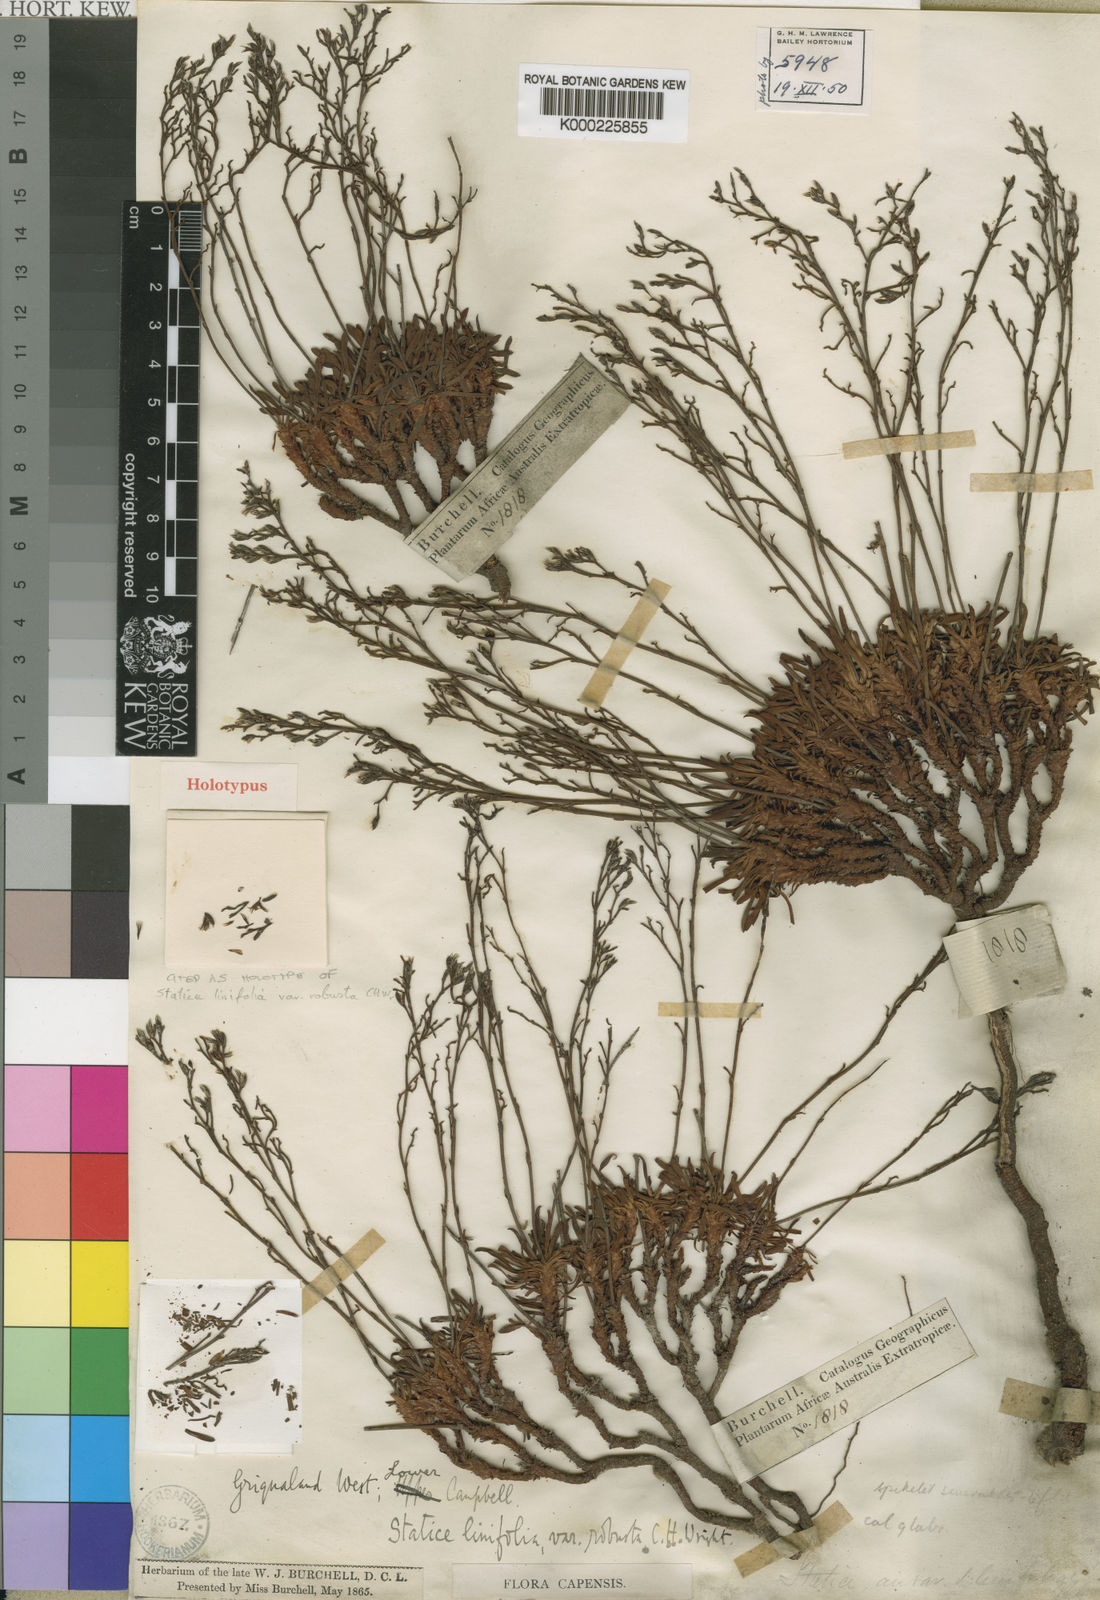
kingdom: Plantae
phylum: Tracheophyta
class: Magnoliopsida
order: Caryophyllales
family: Plumbaginaceae
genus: Limonium
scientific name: Limonium dregeanum
